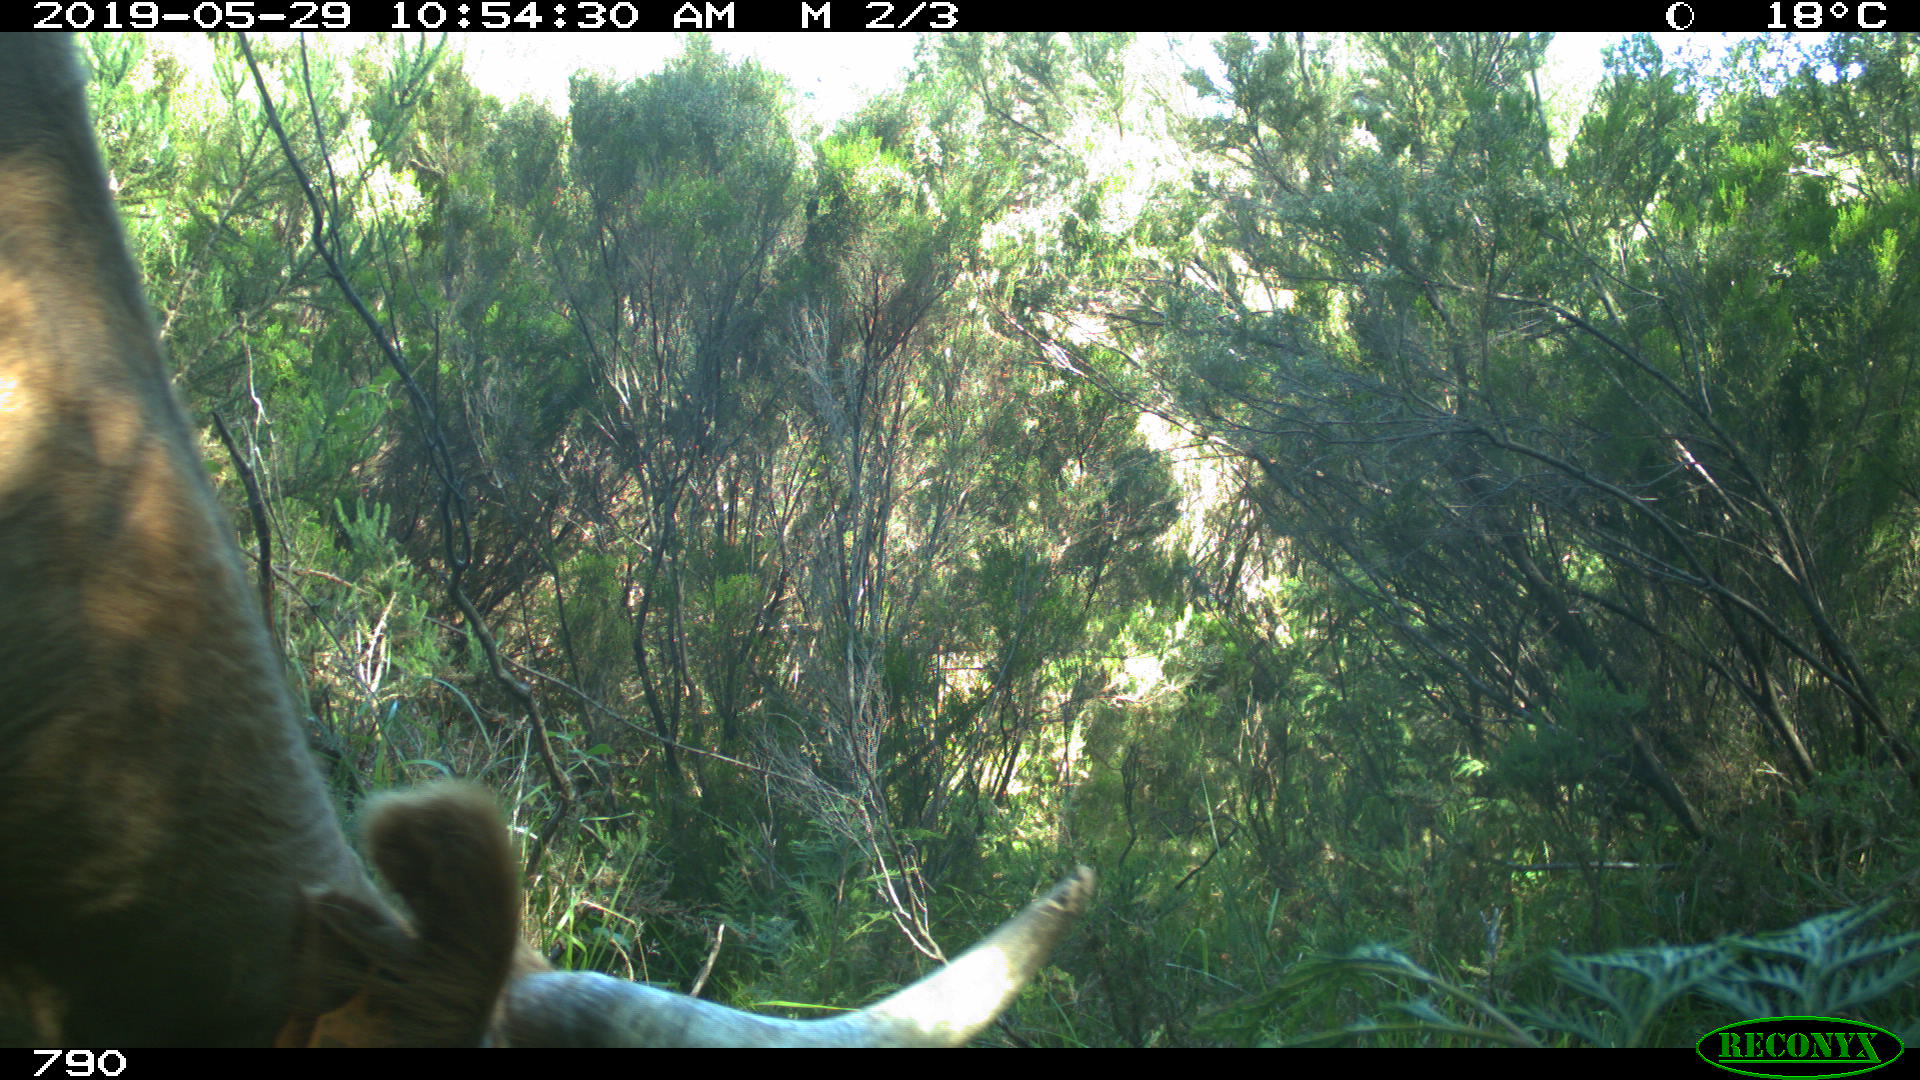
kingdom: Animalia
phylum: Chordata
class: Mammalia
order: Artiodactyla
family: Bovidae
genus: Bos
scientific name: Bos taurus
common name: Domesticated cattle
